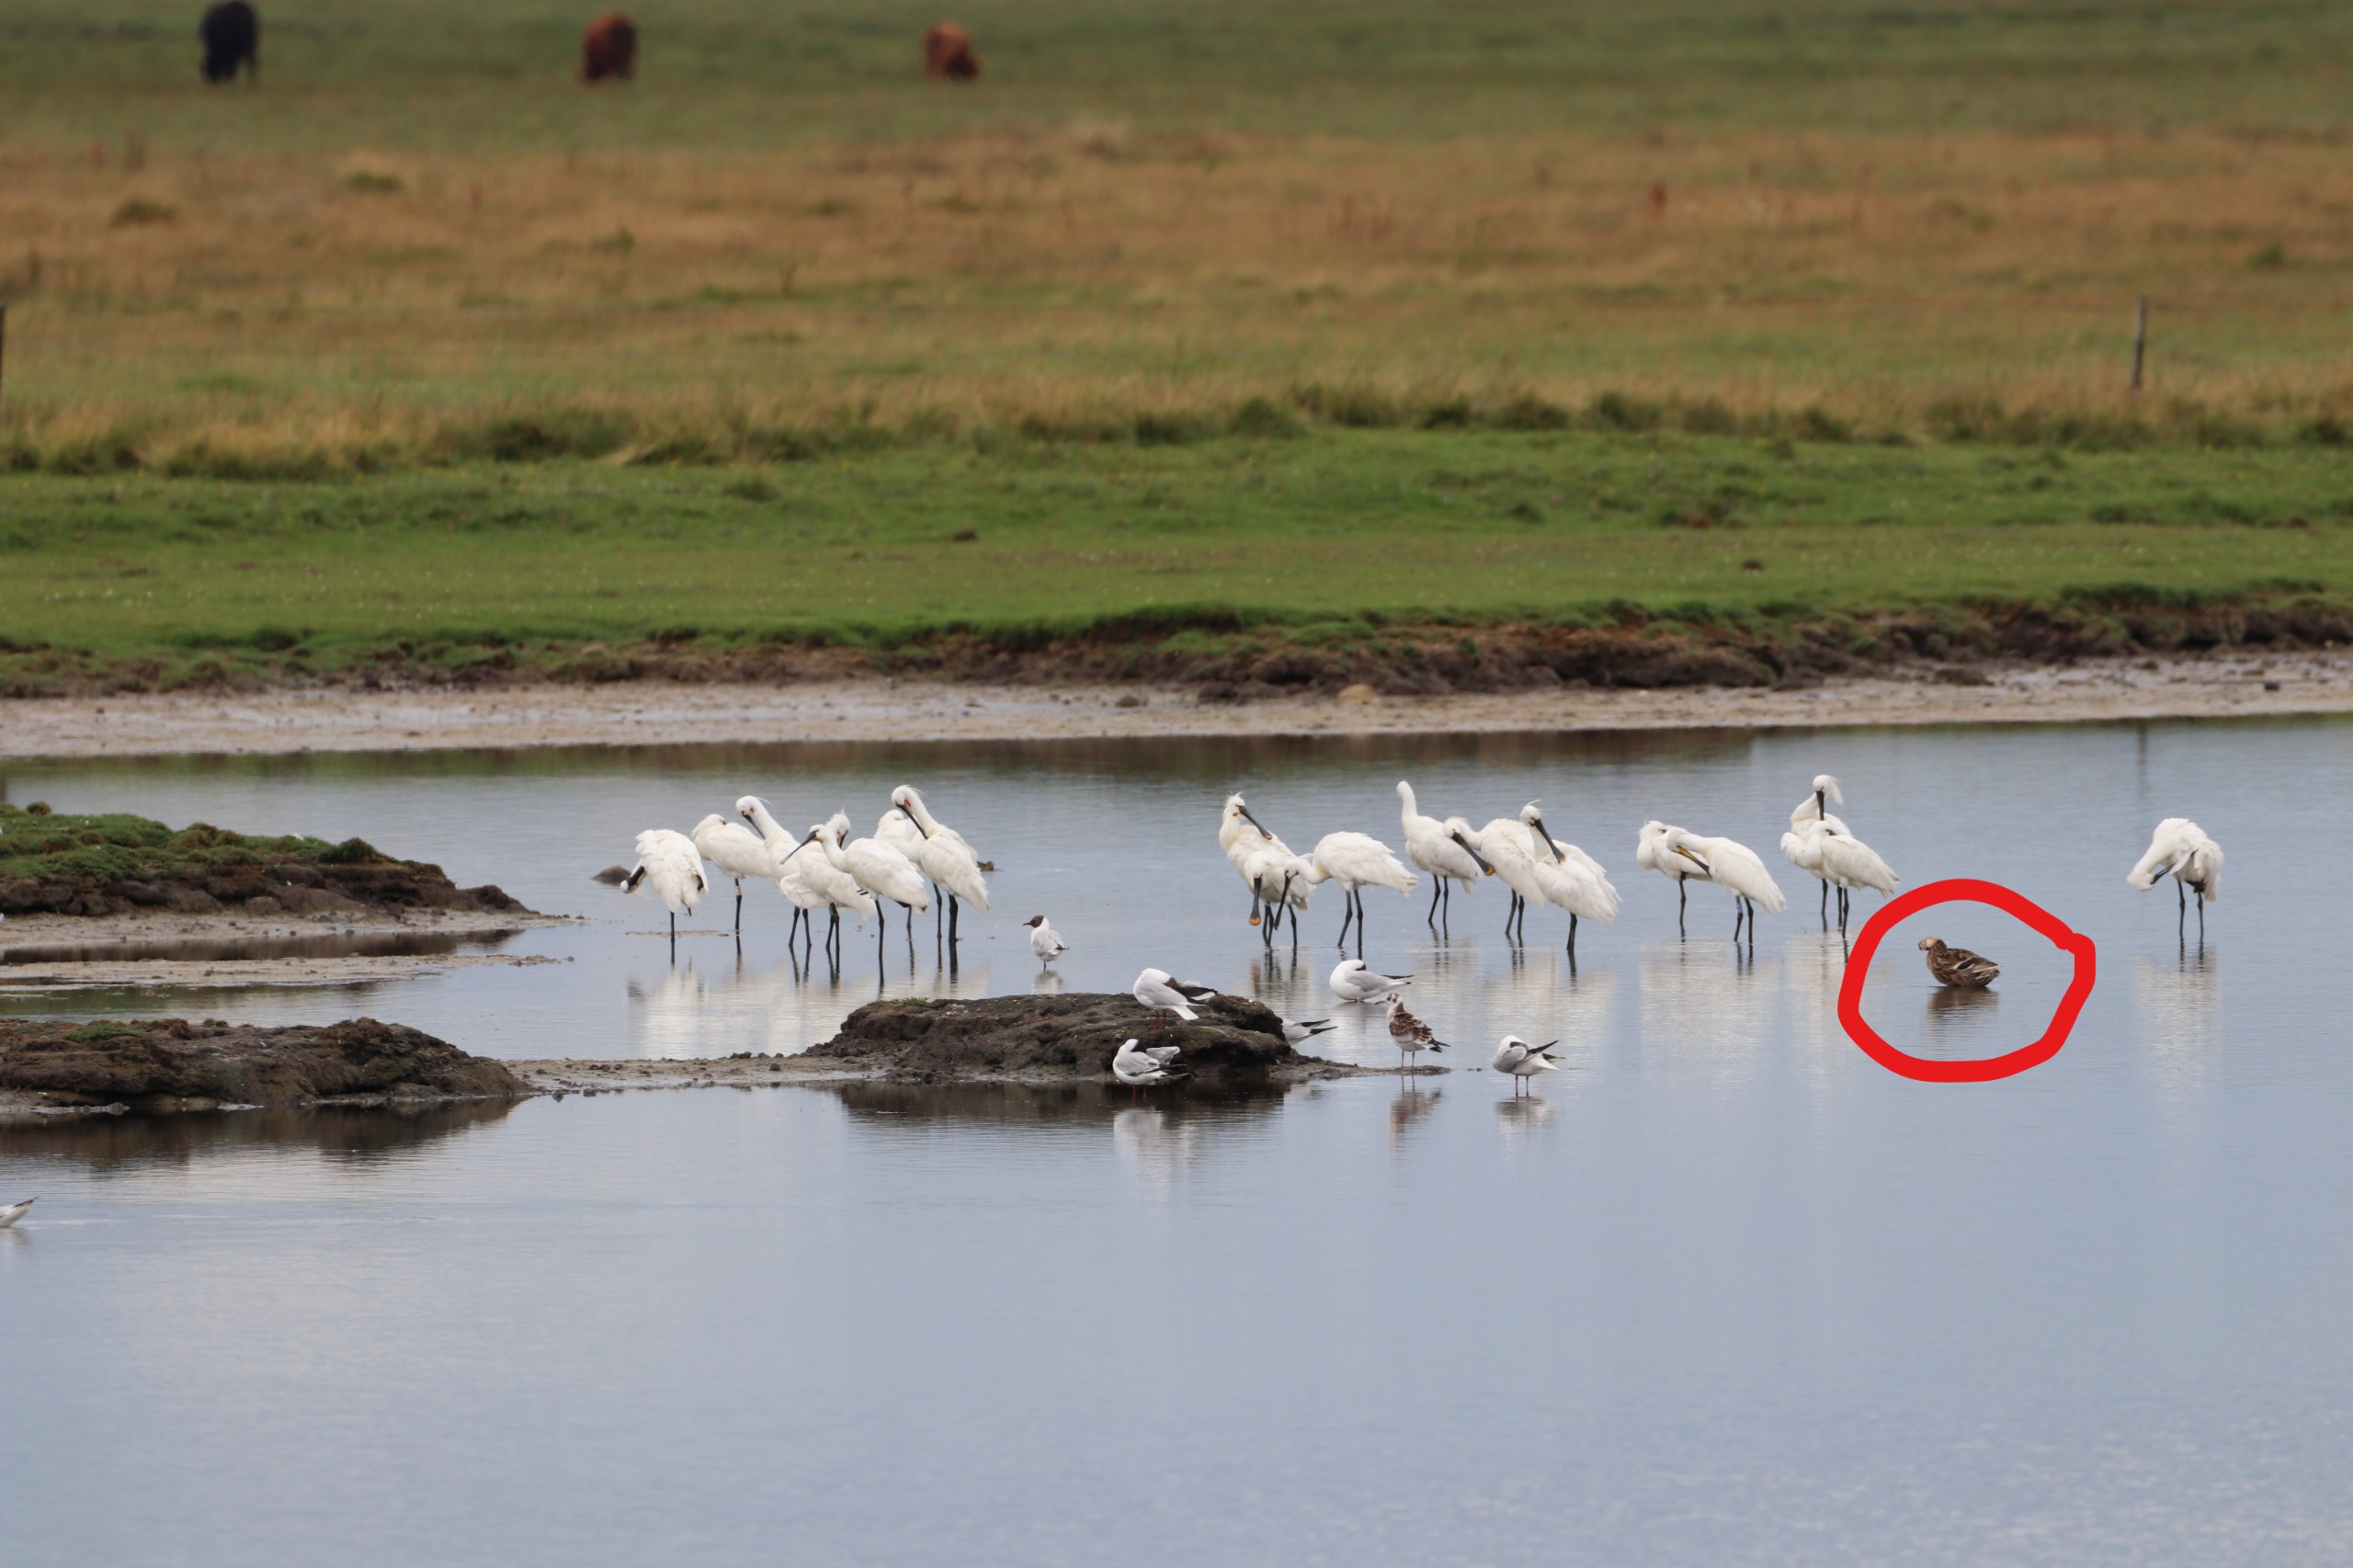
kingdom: Animalia
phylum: Chordata
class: Aves
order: Anseriformes
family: Anatidae
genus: Anas
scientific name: Anas platyrhynchos
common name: Gråand
